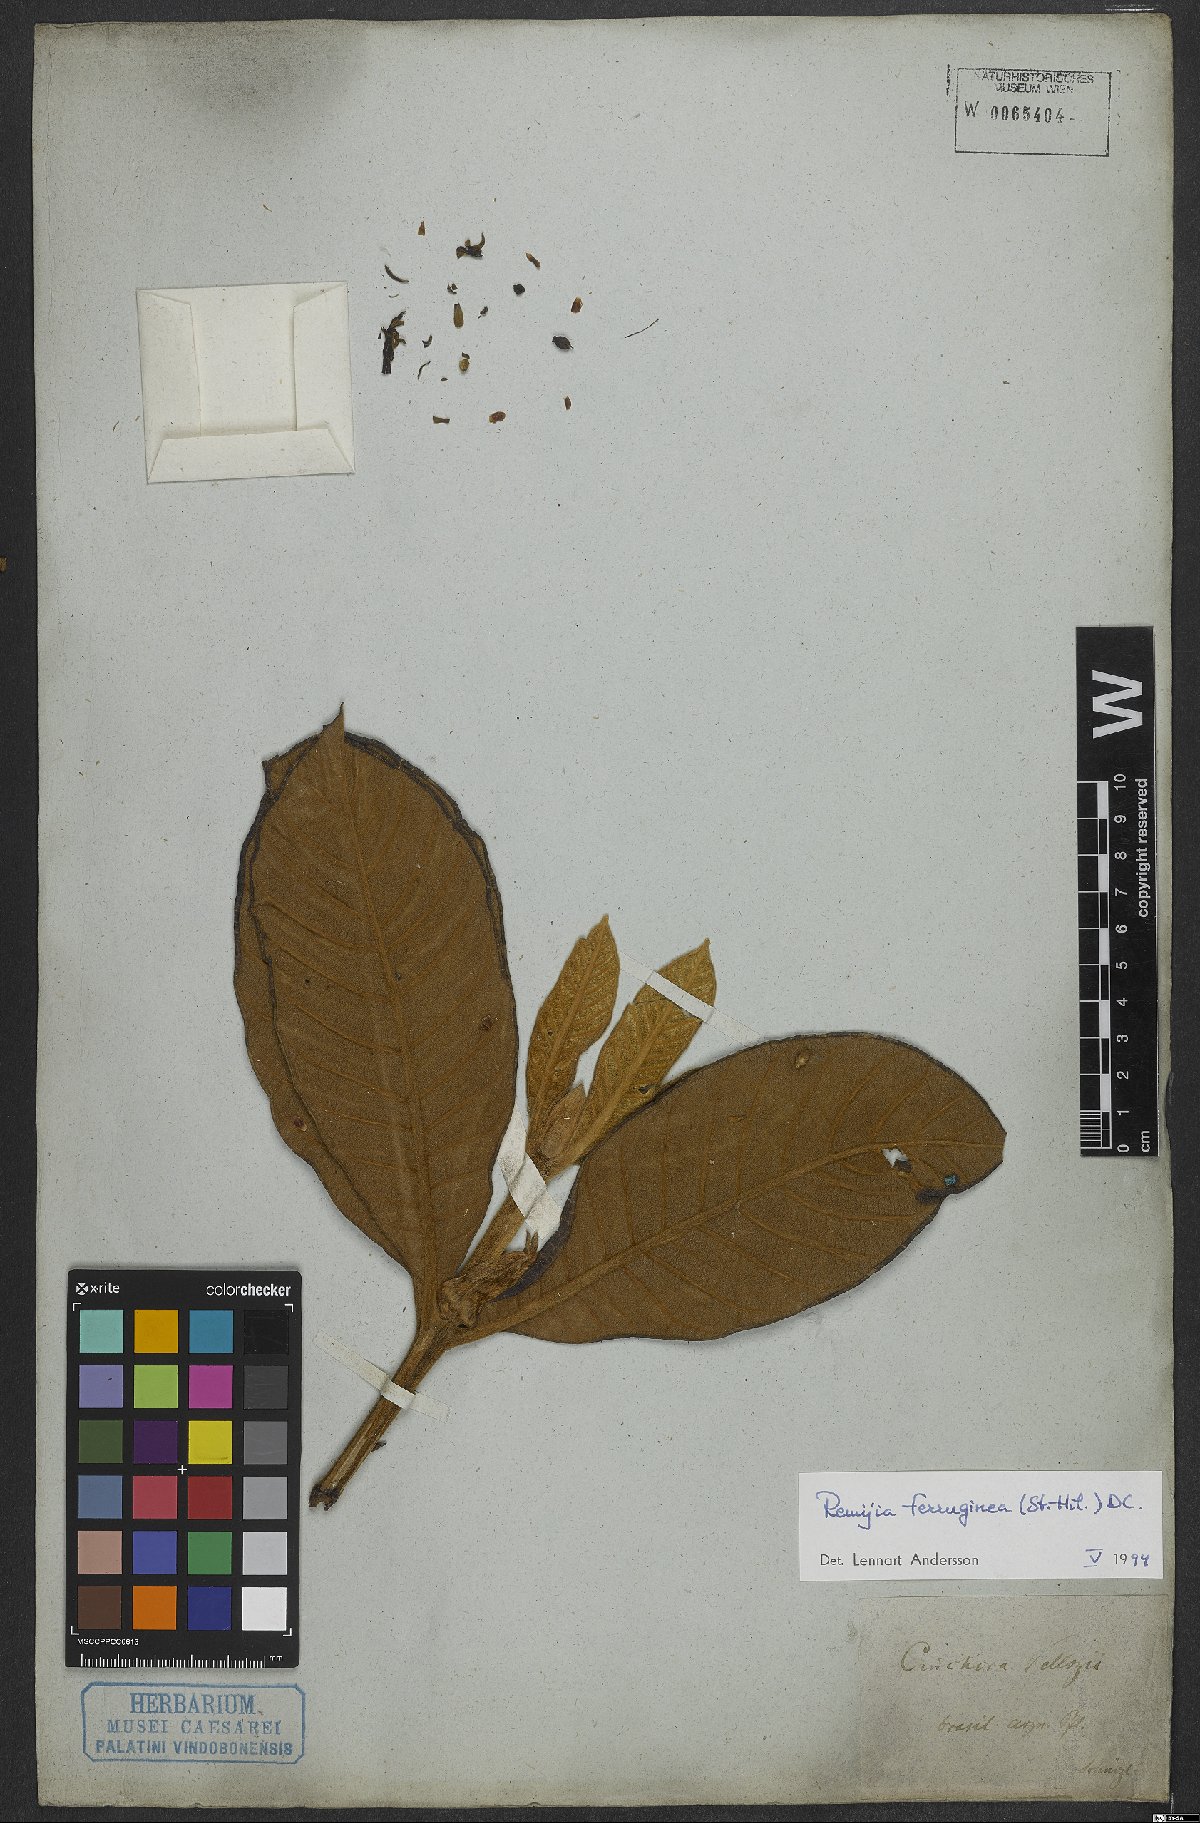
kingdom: Plantae
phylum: Tracheophyta
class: Magnoliopsida
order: Gentianales
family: Rubiaceae
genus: Remijia
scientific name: Remijia ferruginea
